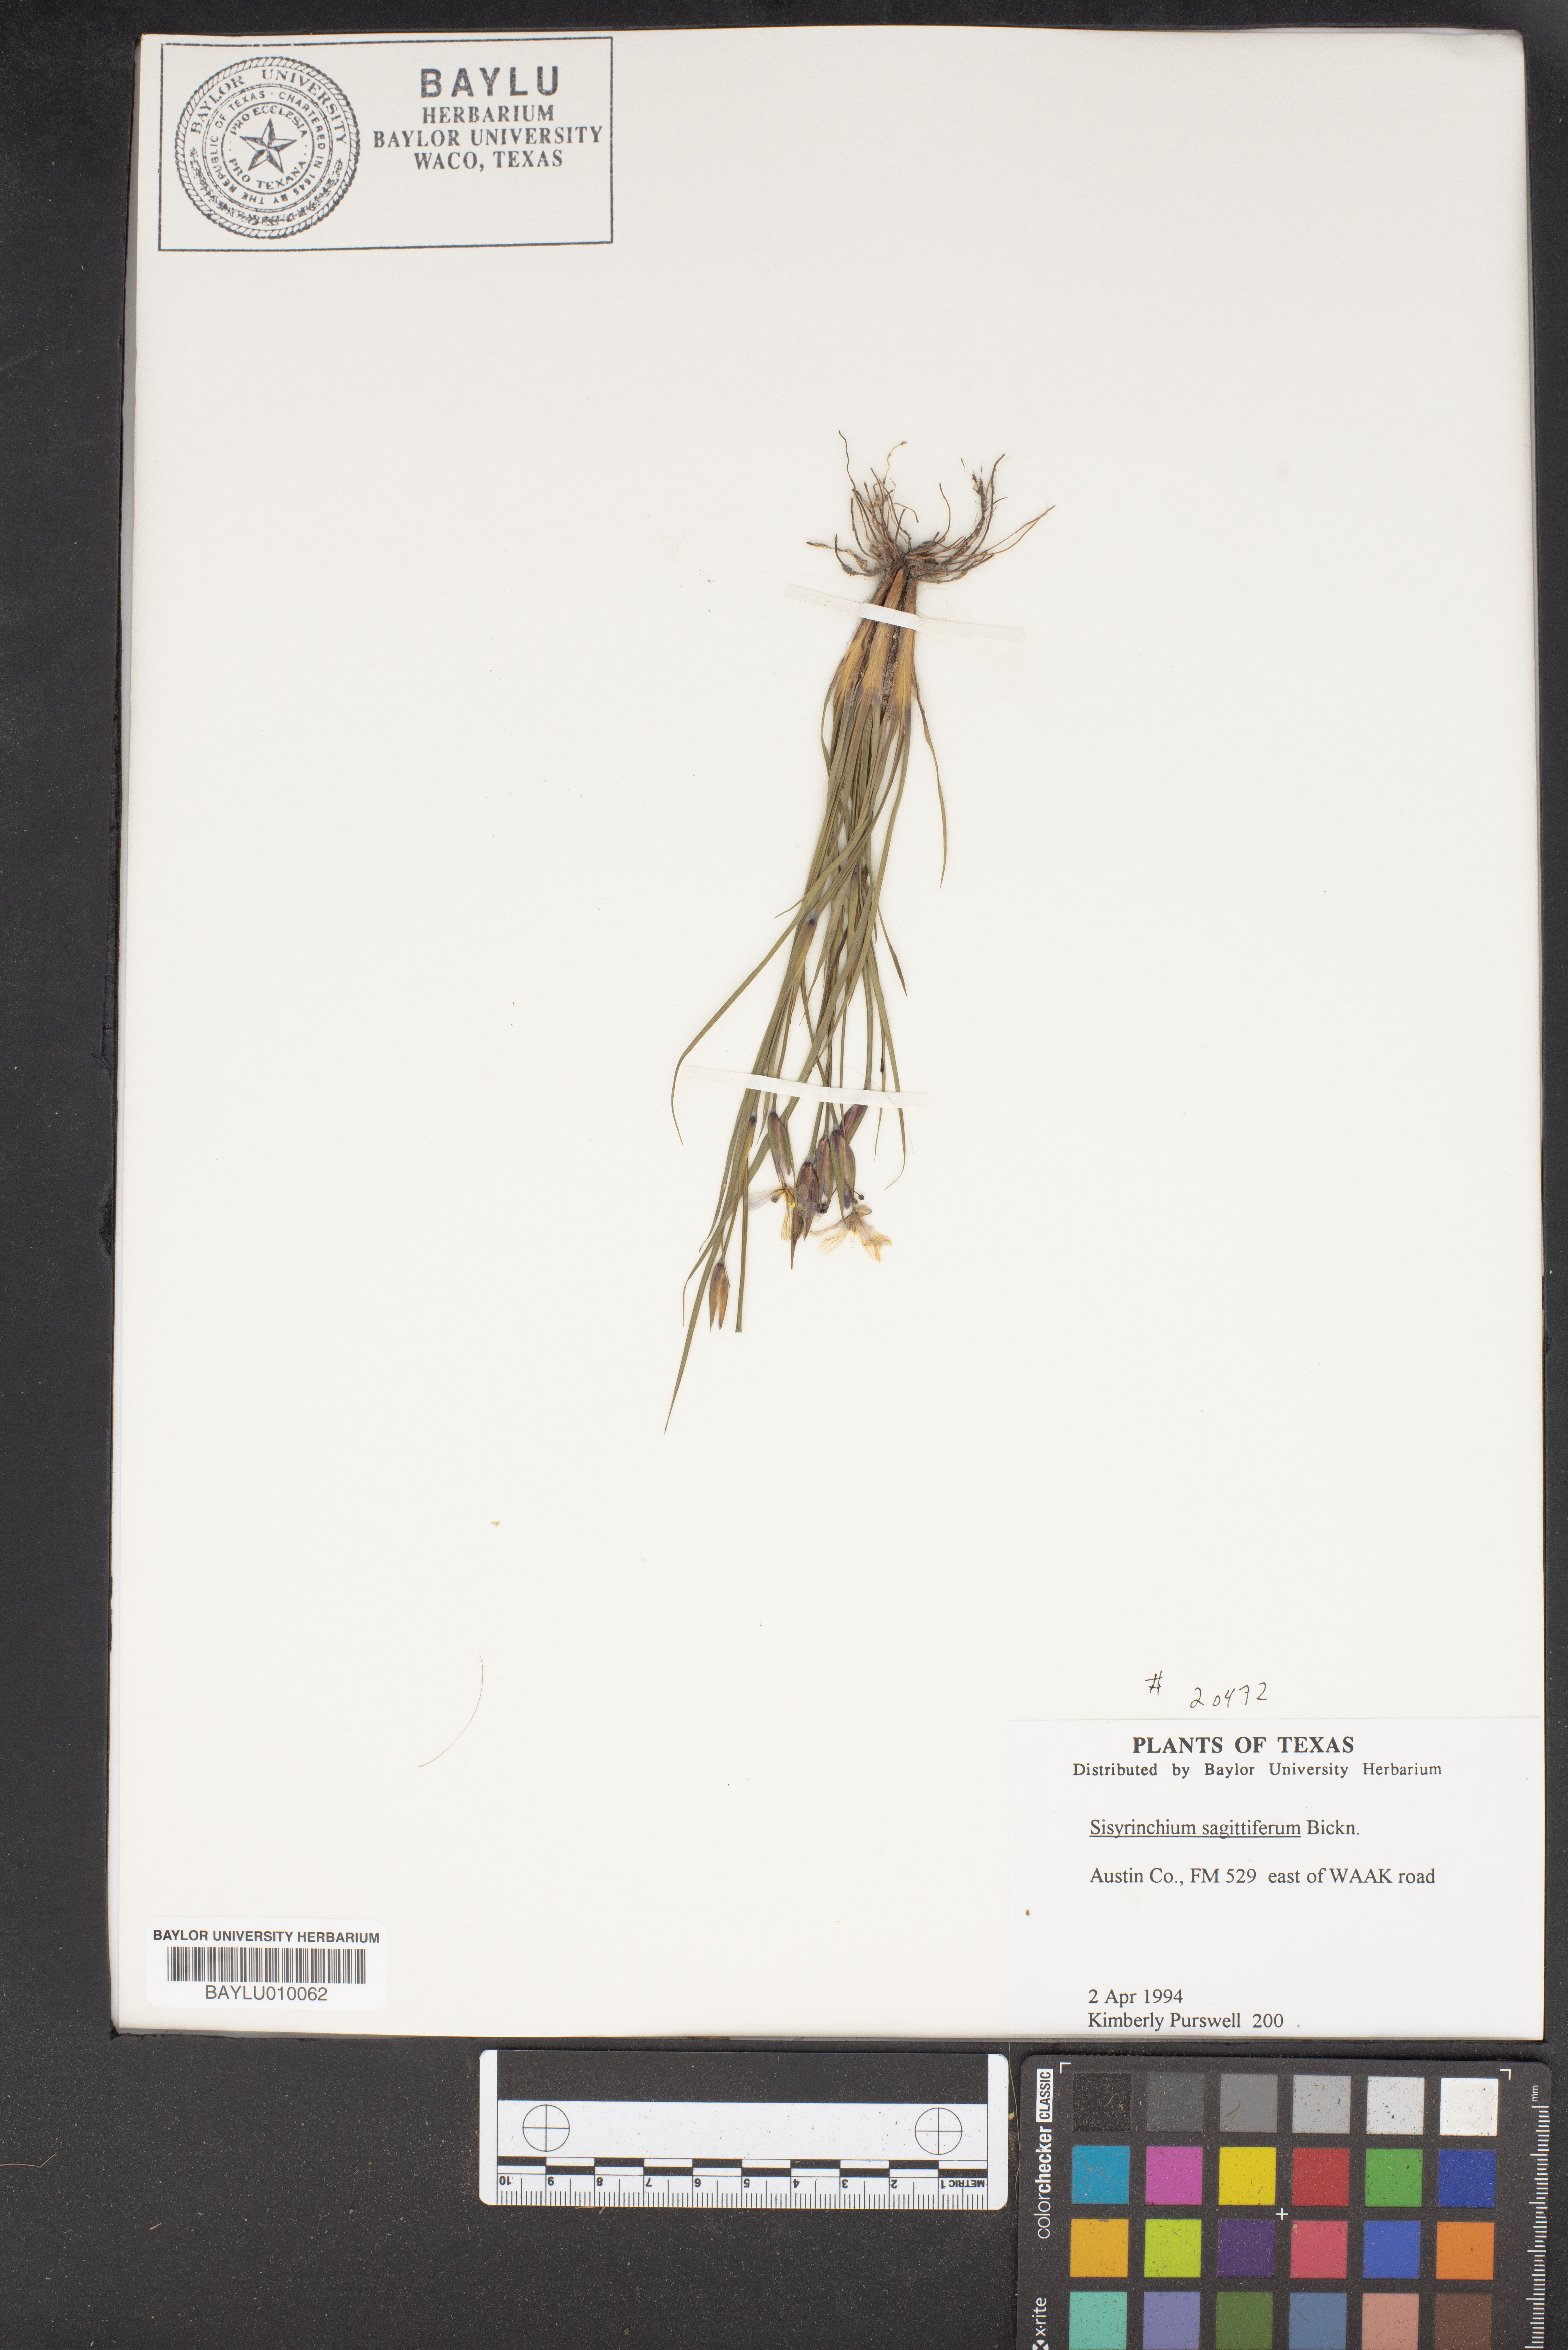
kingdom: Plantae
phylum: Tracheophyta
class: Liliopsida
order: Asparagales
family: Iridaceae
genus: Sisyrinchium
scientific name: Sisyrinchium sagittiferum
